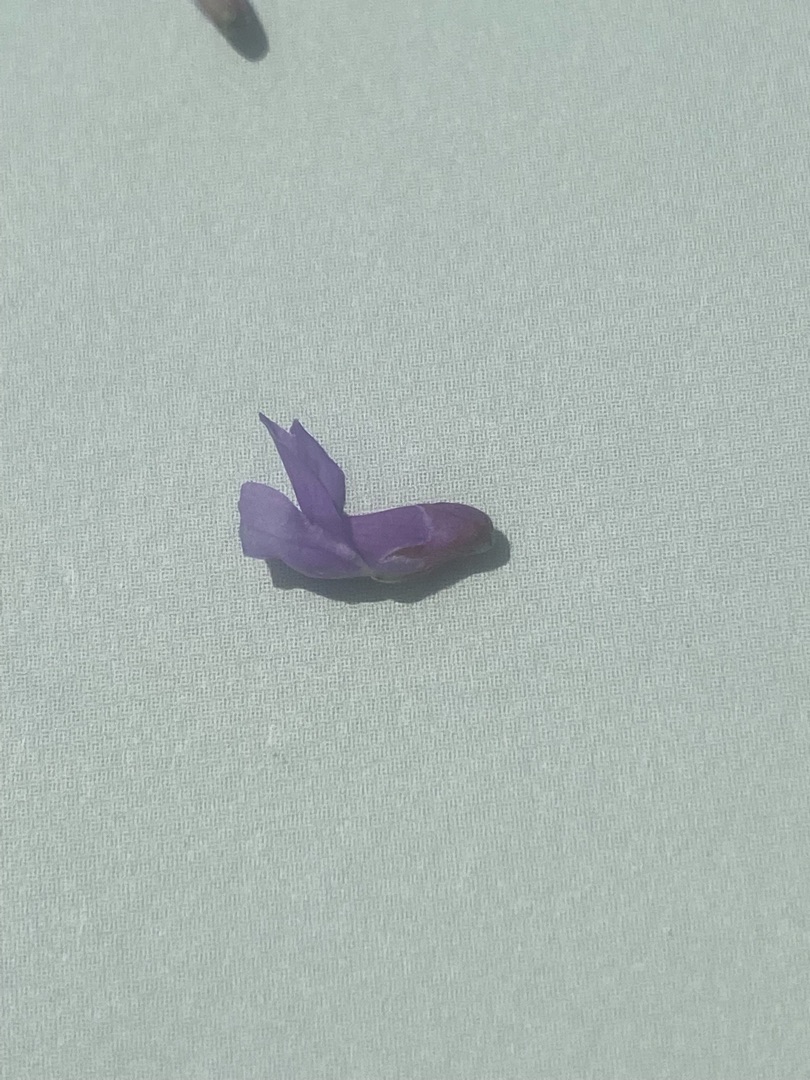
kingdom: Plantae
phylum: Tracheophyta
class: Magnoliopsida
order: Fabales
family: Fabaceae
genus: Vicia
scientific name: Vicia cracca
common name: Muse-vikke
